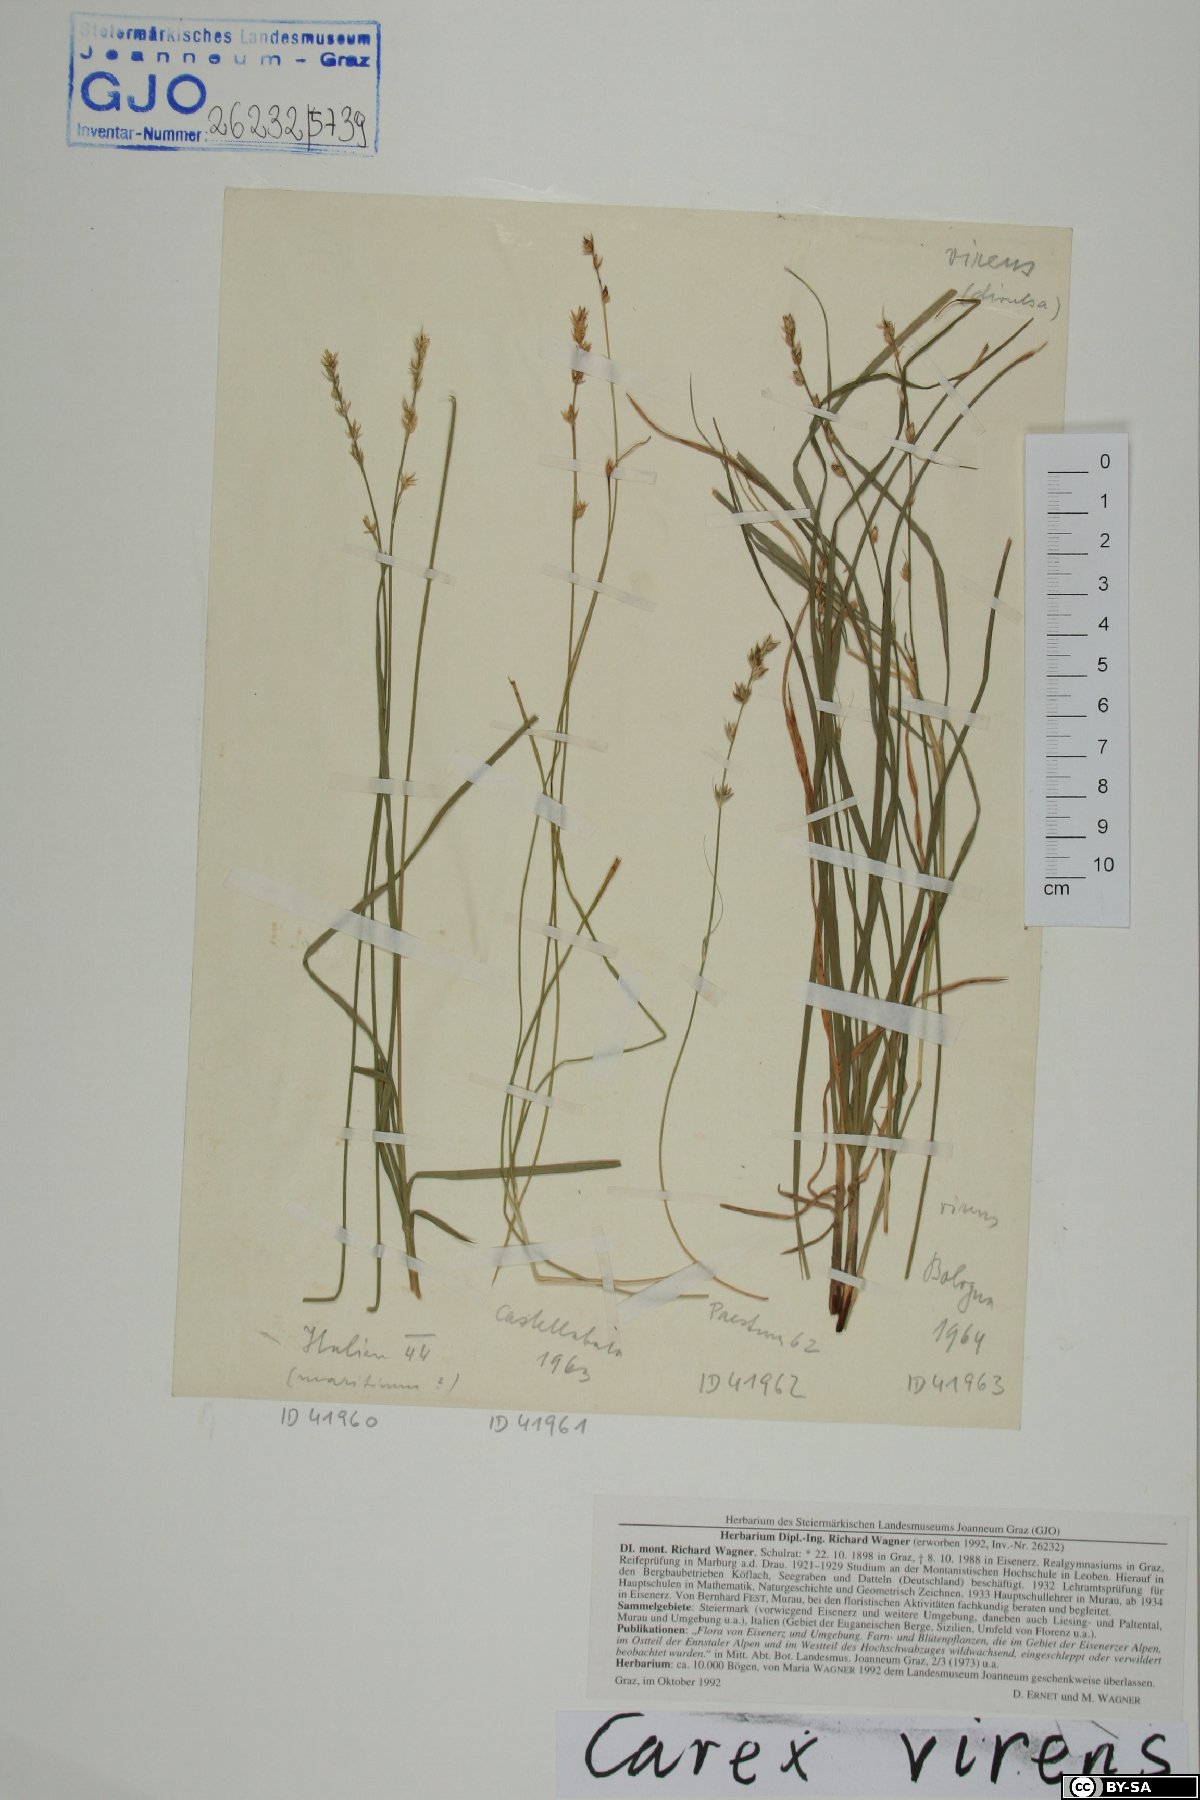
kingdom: Plantae
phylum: Tracheophyta
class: Liliopsida
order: Poales
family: Cyperaceae
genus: Carex
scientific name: Carex divulsa
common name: Grassland sedge
